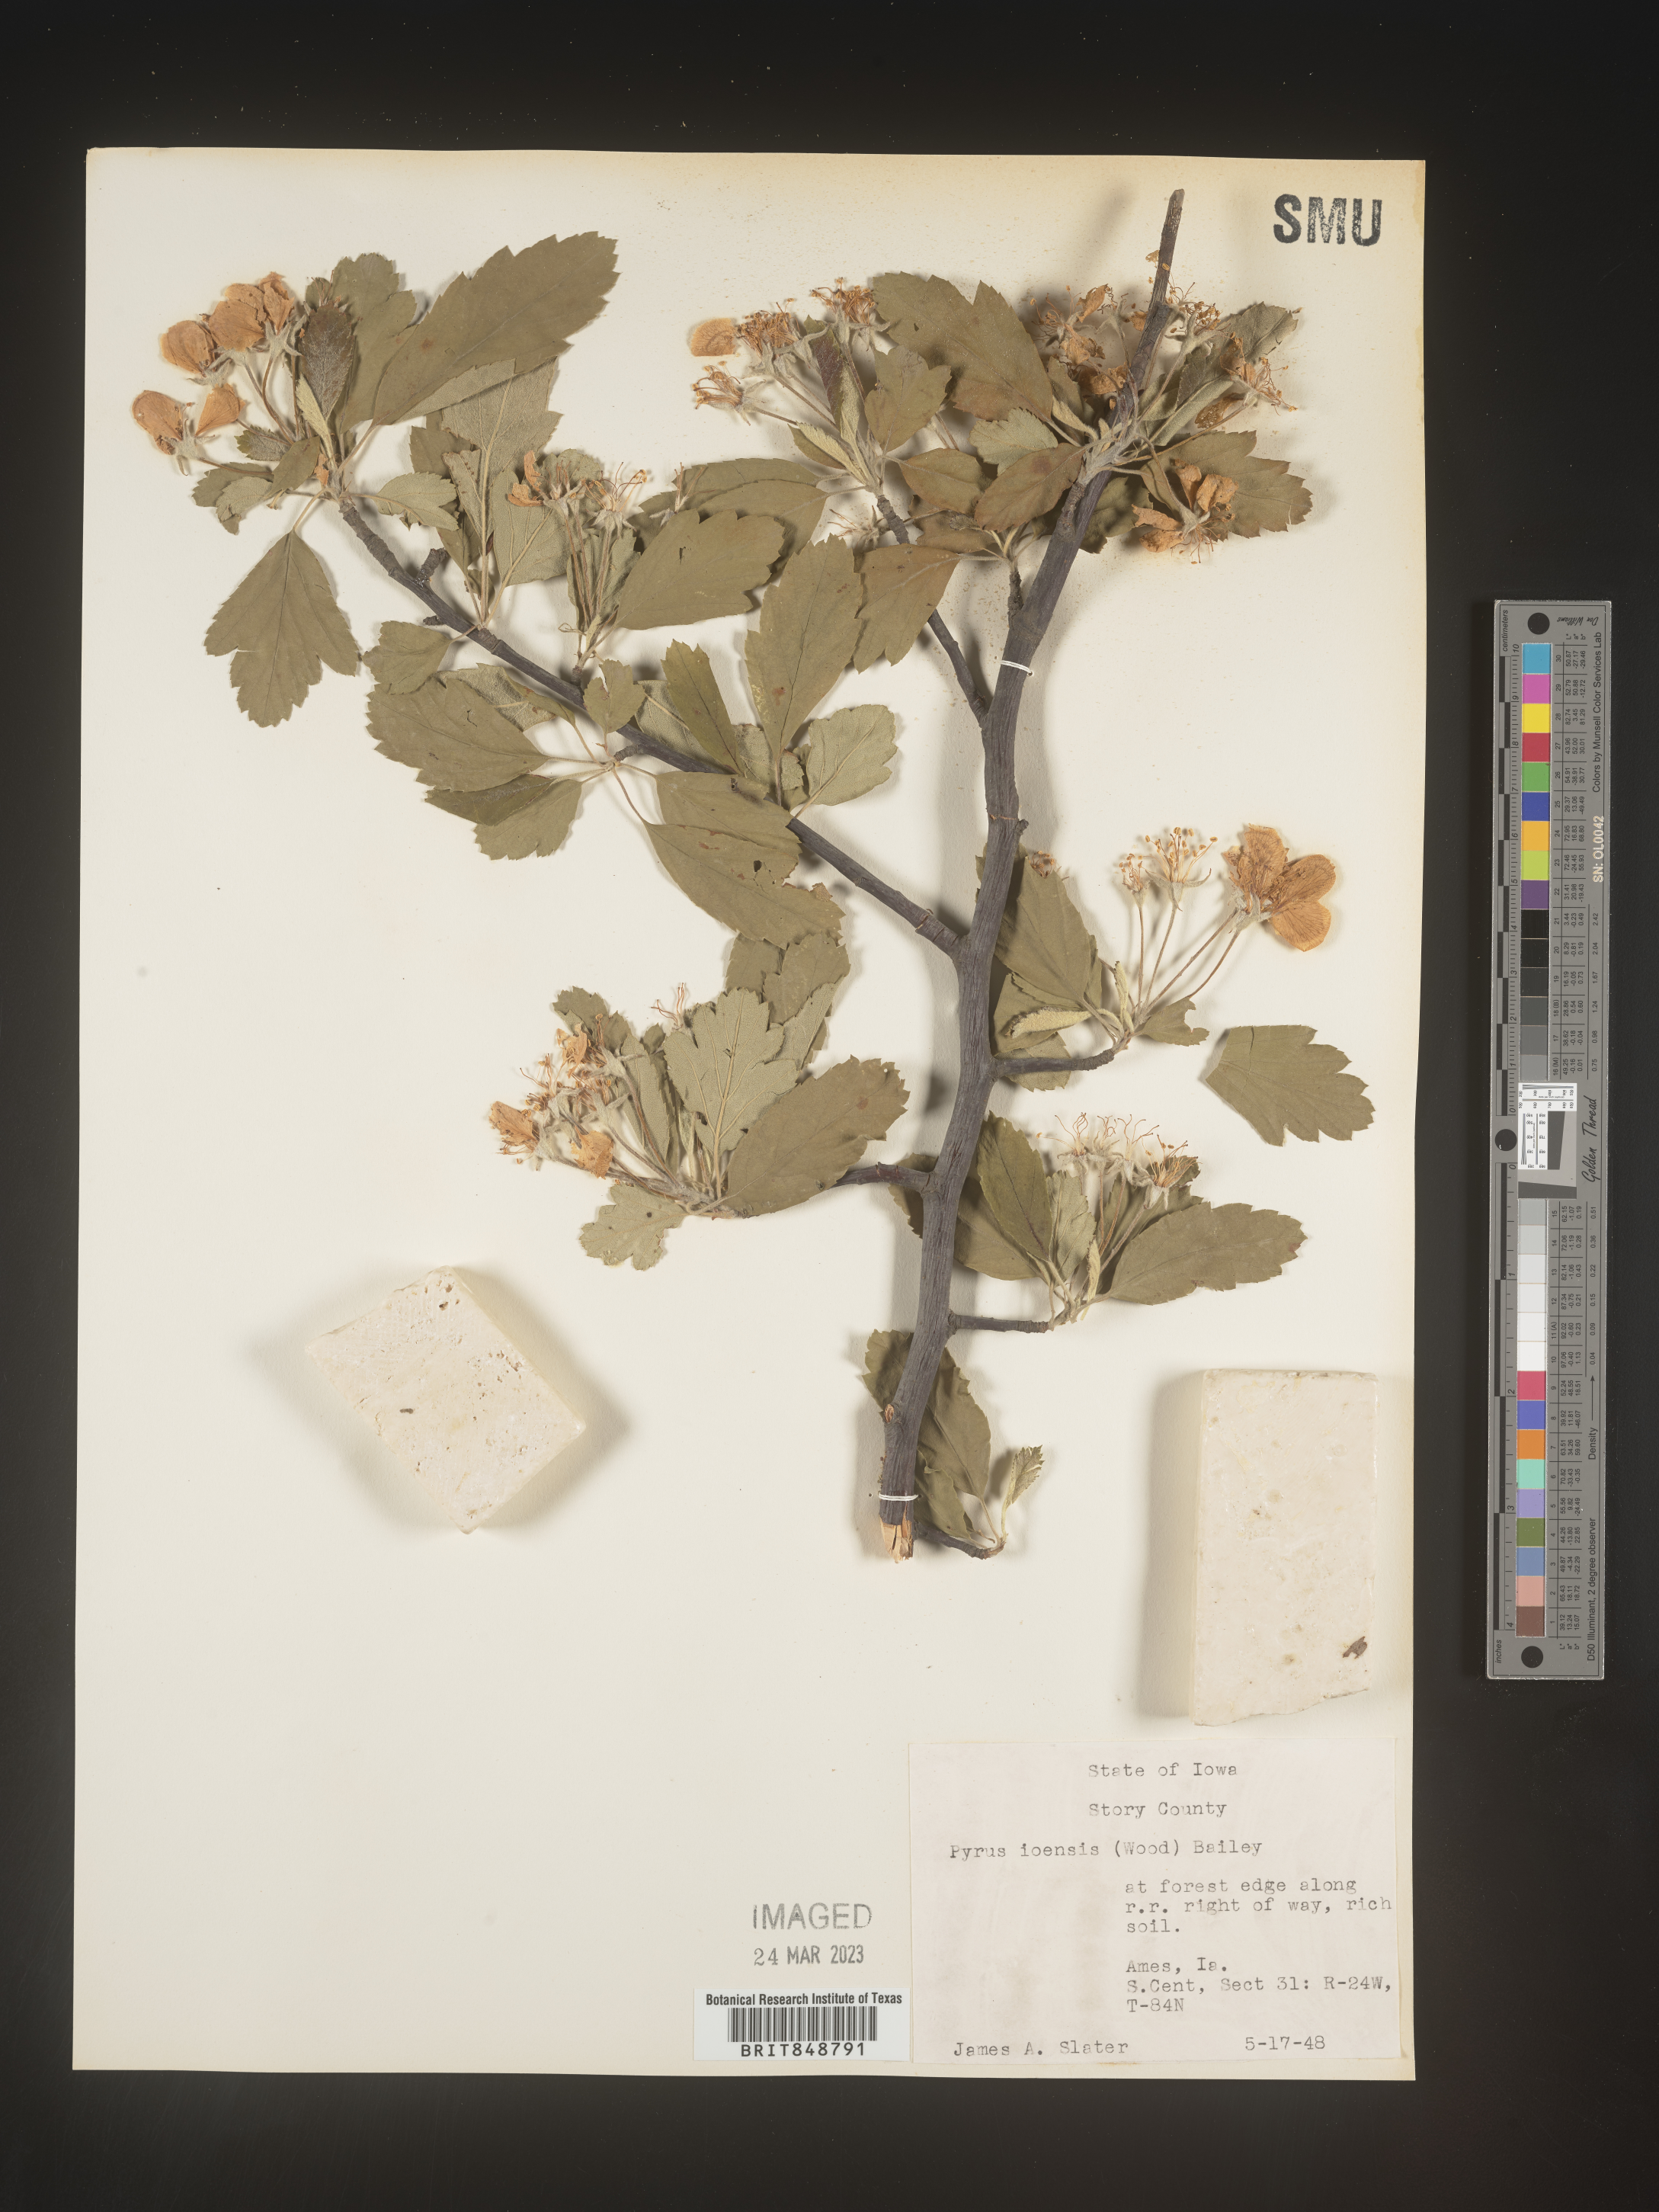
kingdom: Plantae
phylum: Tracheophyta
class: Magnoliopsida
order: Rosales
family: Rosaceae
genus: Malus
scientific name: Malus ioensis
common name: Iowa crab apple
